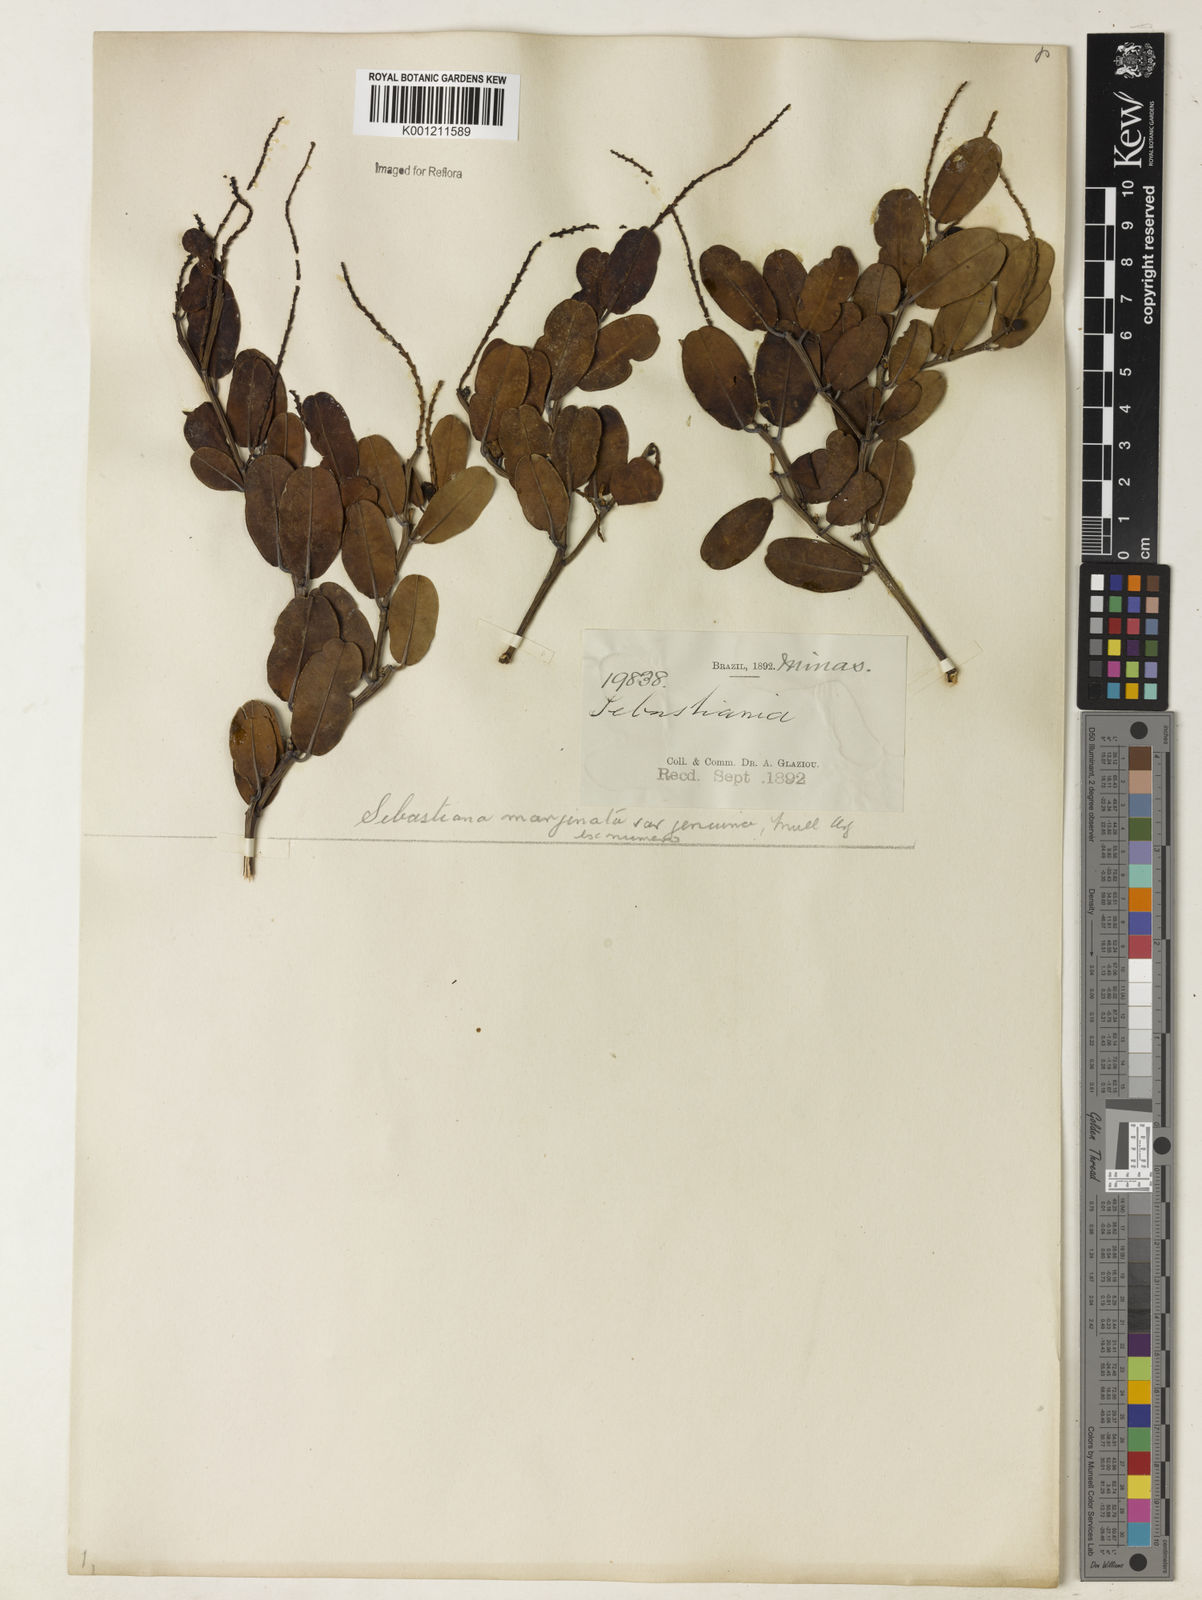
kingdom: Plantae
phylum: Tracheophyta
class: Magnoliopsida
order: Malpighiales
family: Euphorbiaceae
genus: Microstachys
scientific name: Microstachys
